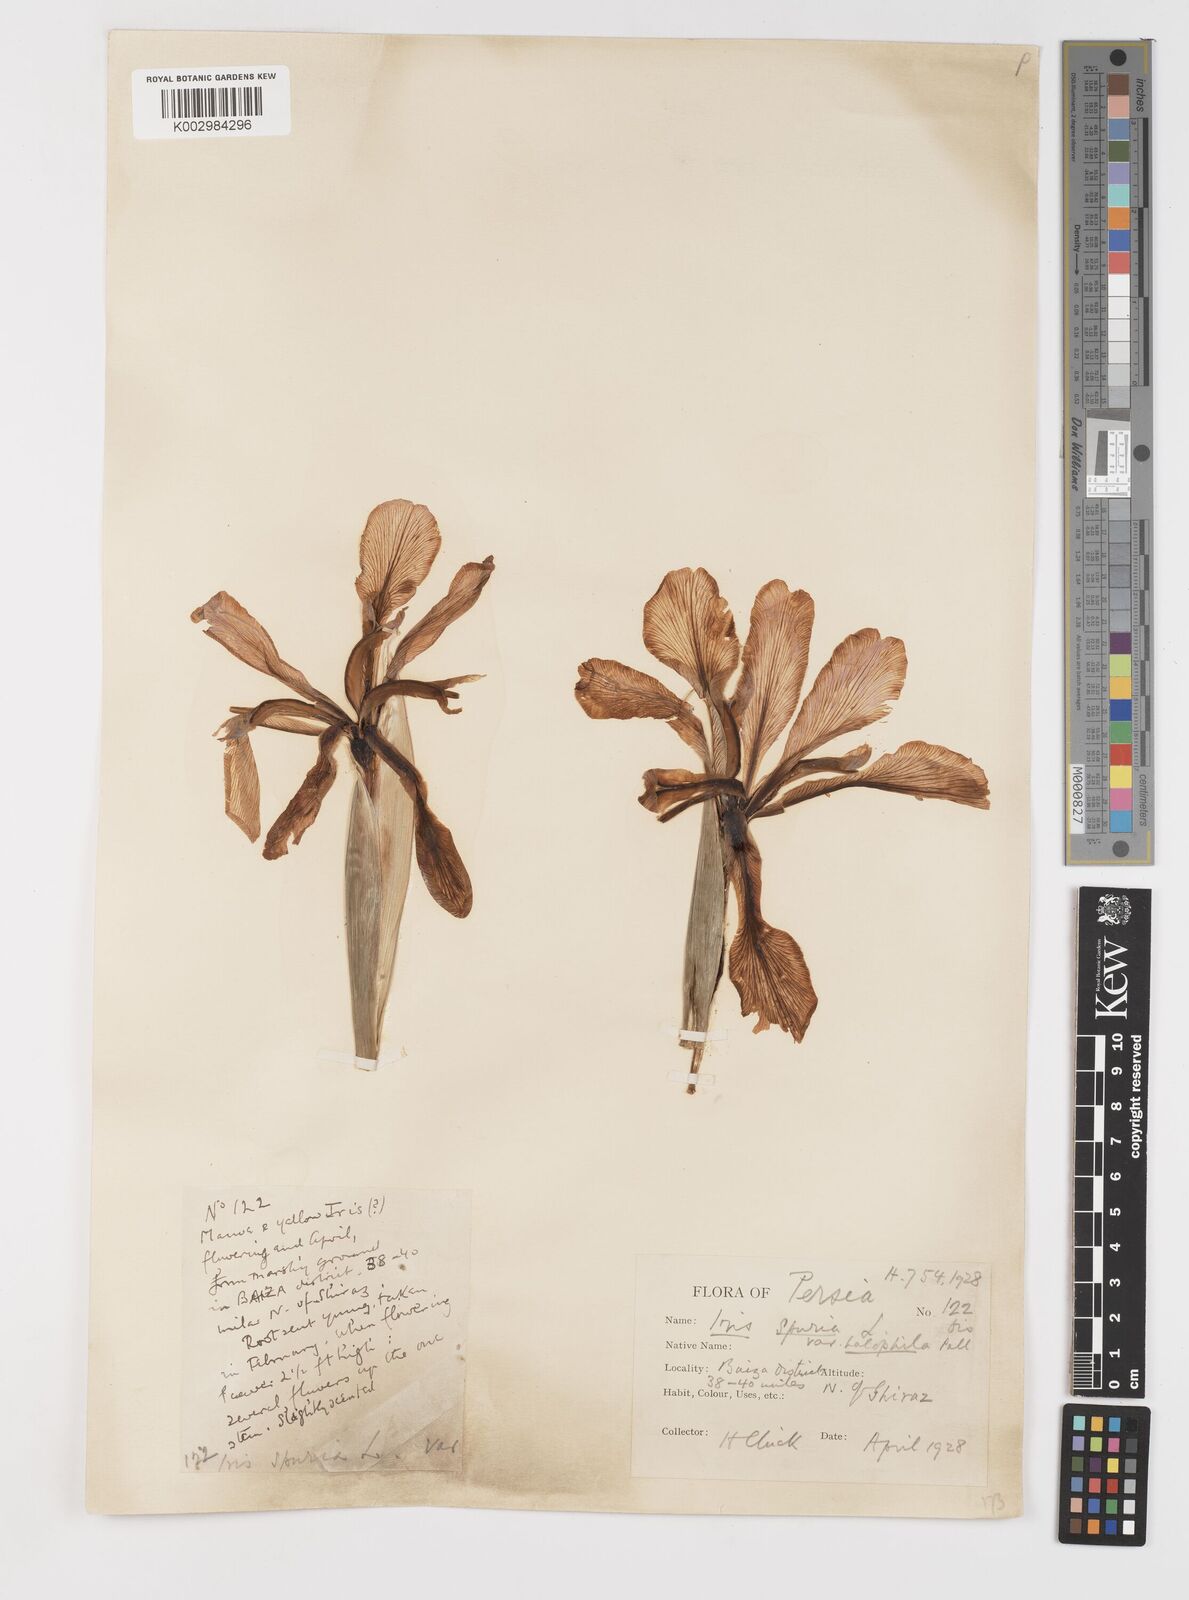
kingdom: Plantae
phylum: Tracheophyta
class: Liliopsida
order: Asparagales
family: Iridaceae
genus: Iris
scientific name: Iris spuria
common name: Blue iris
